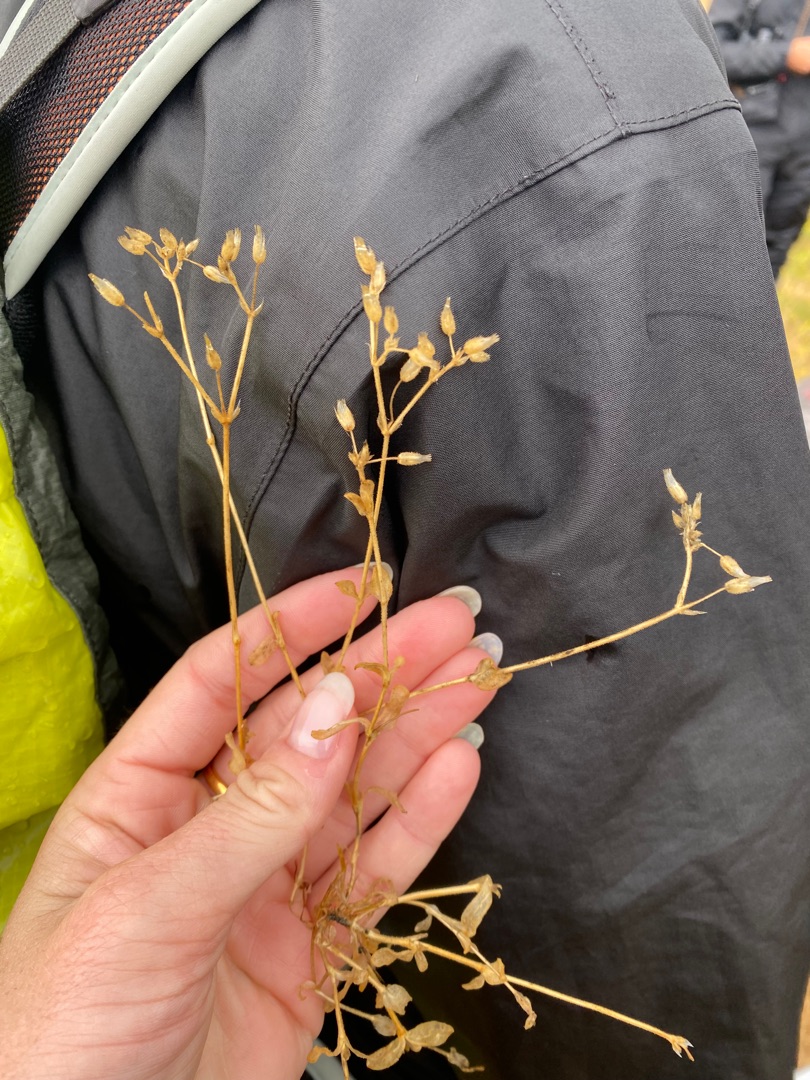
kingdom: Plantae
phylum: Tracheophyta
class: Magnoliopsida
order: Caryophyllales
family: Caryophyllaceae
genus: Cerastium
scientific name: Cerastium semidecandrum
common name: Femhannet hønsetarm
